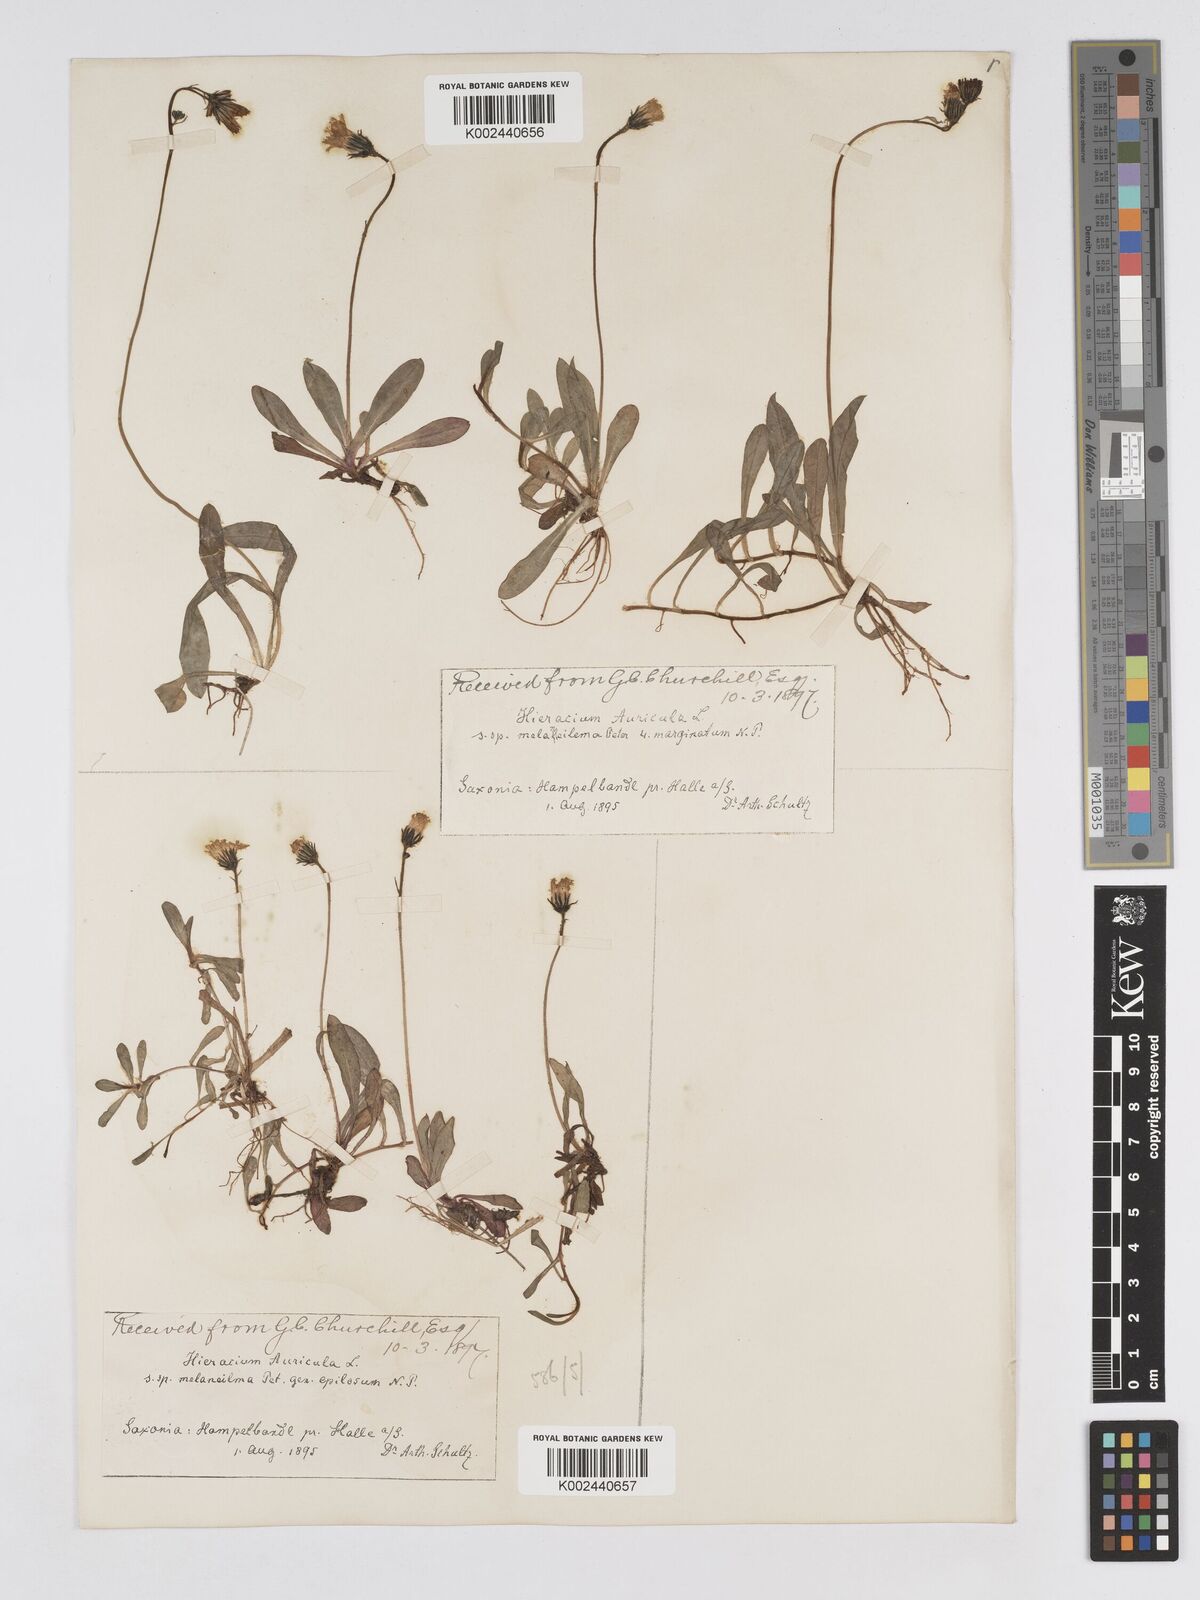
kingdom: Plantae
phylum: Tracheophyta
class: Magnoliopsida
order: Asterales
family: Asteraceae
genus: Pilosella
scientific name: Pilosella lactucella
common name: Glaucous fox-and-cubs
